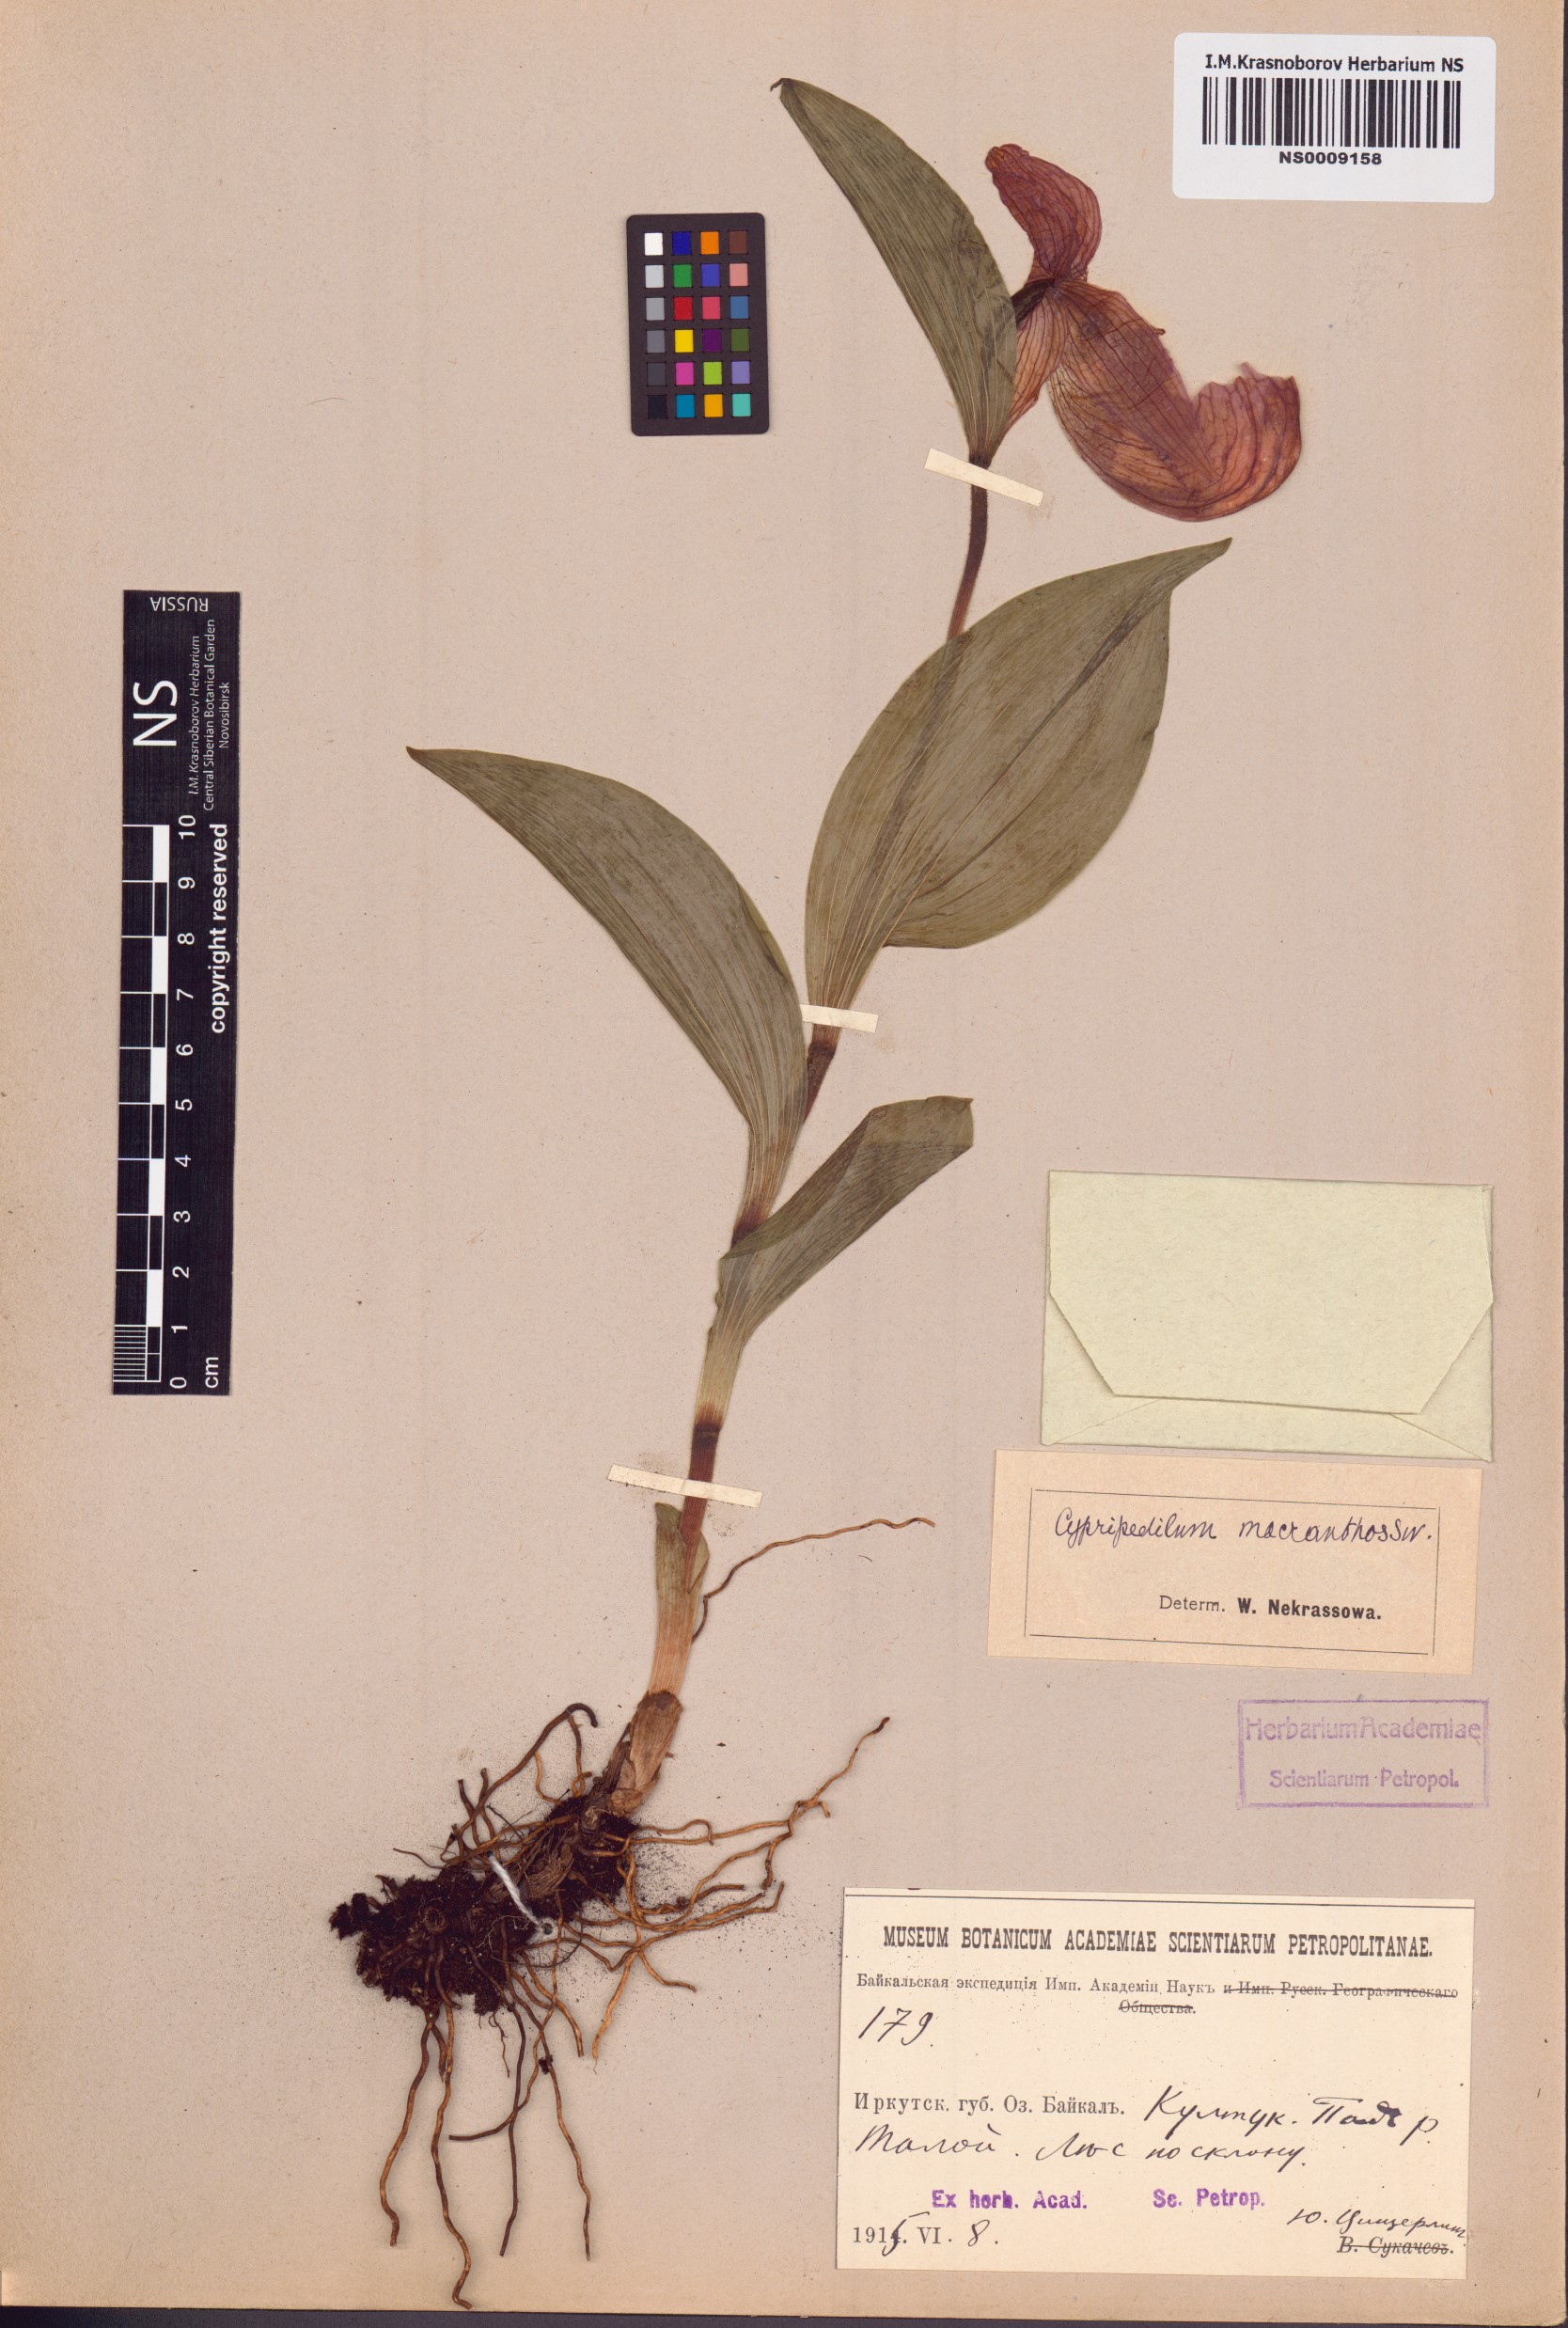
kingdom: Plantae
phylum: Tracheophyta
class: Liliopsida
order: Asparagales
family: Orchidaceae
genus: Cypripedium
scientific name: Cypripedium macranthos
